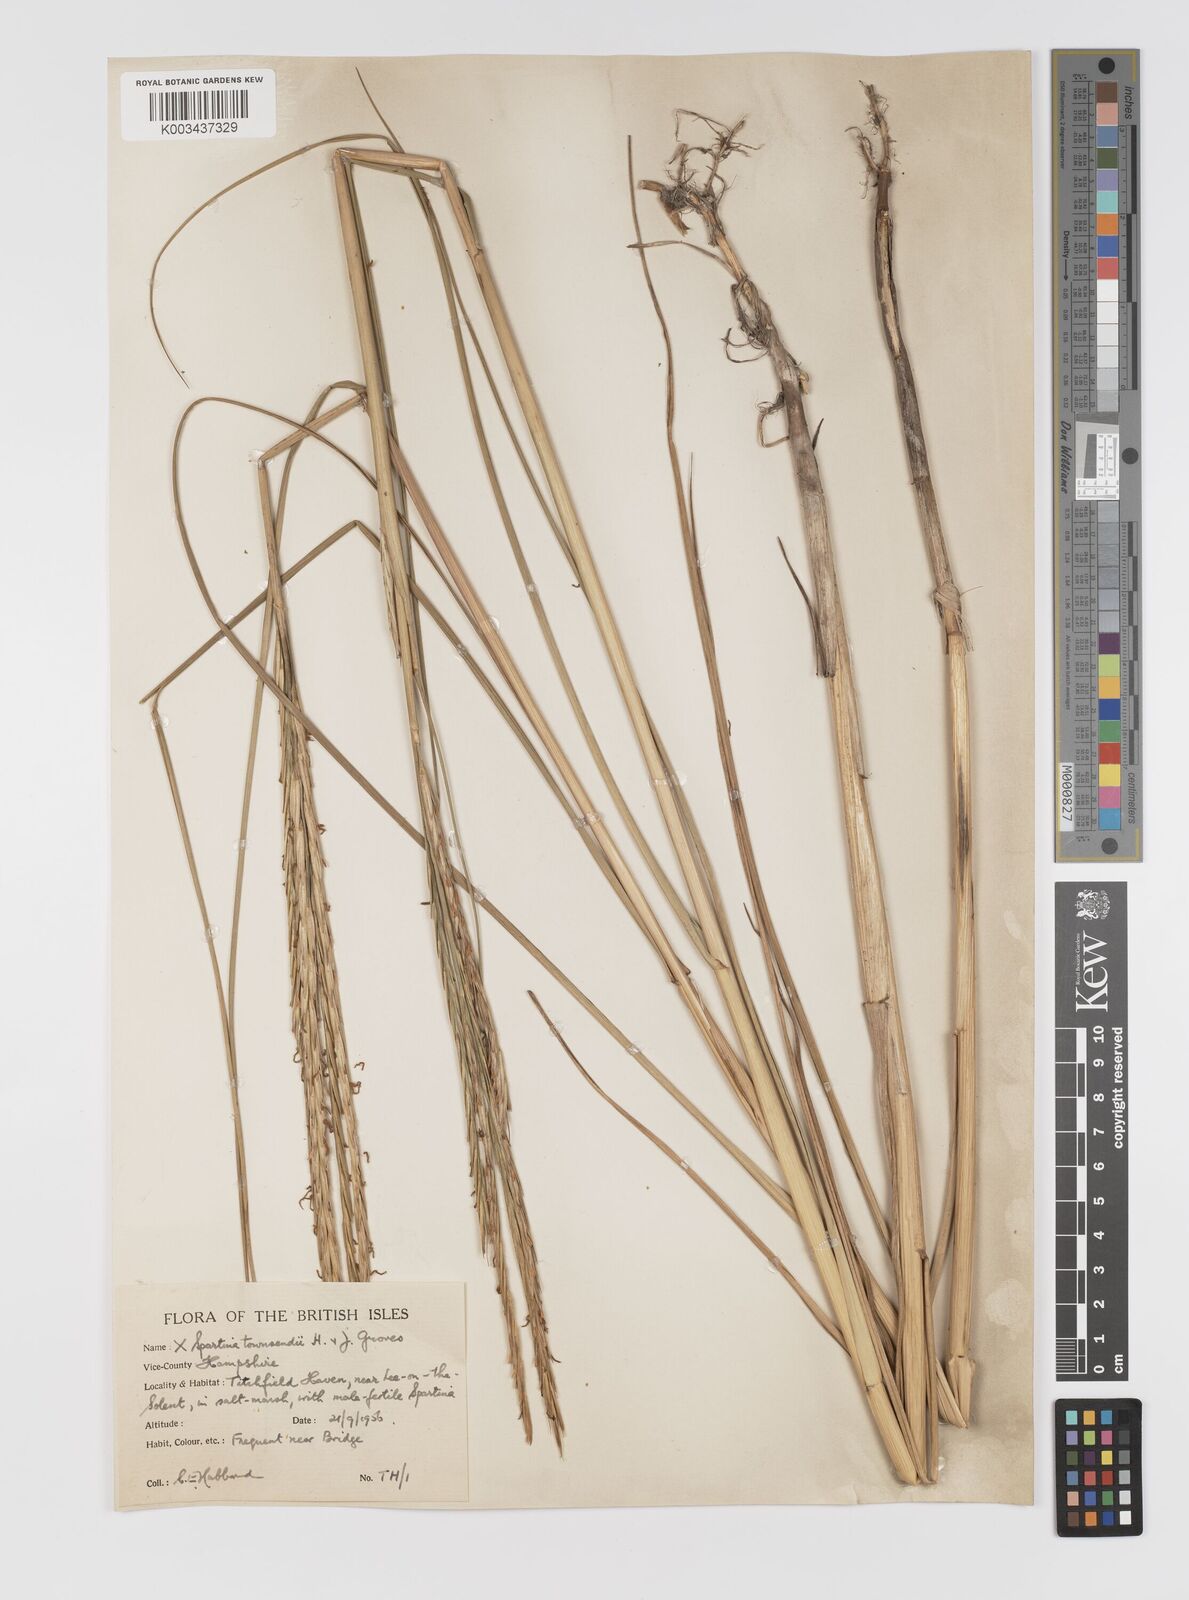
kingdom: Plantae
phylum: Tracheophyta
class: Liliopsida
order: Poales
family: Poaceae
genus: Sporobolus
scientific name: Sporobolus townsendii
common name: Townsend's cordgrass
